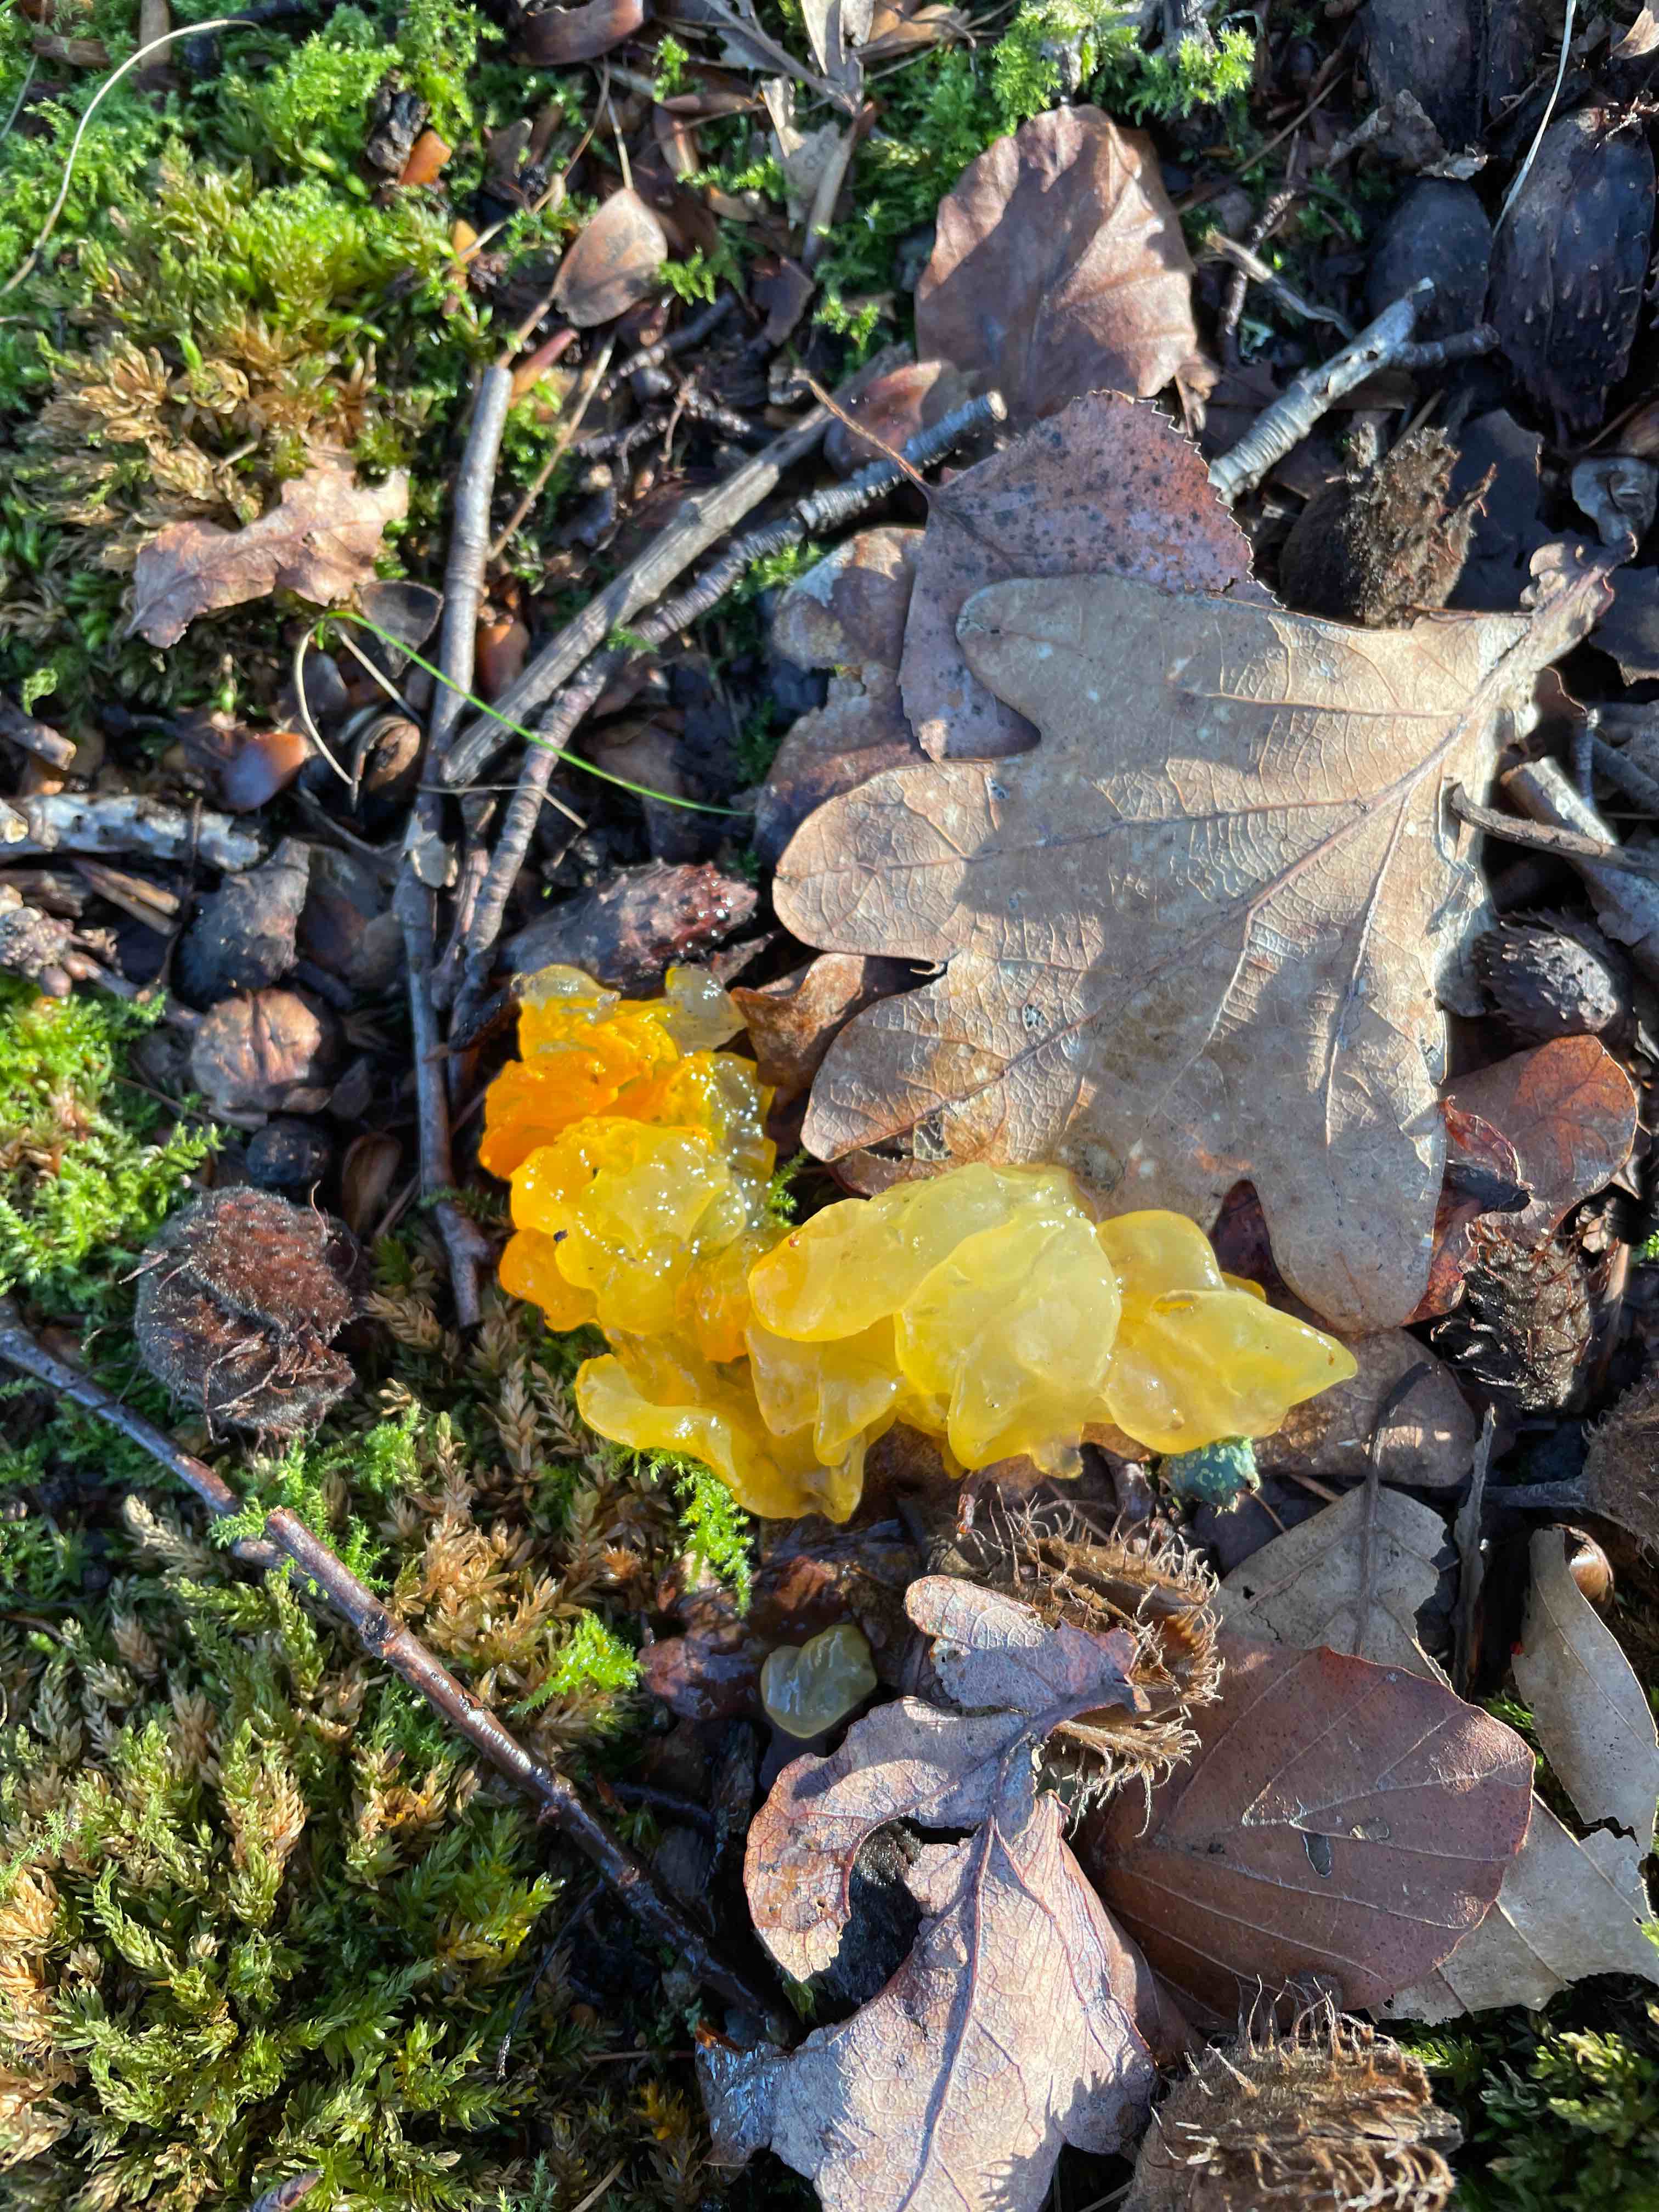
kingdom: Fungi
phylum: Basidiomycota
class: Tremellomycetes
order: Tremellales
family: Tremellaceae
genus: Tremella
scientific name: Tremella mesenterica
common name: gul bævresvamp
